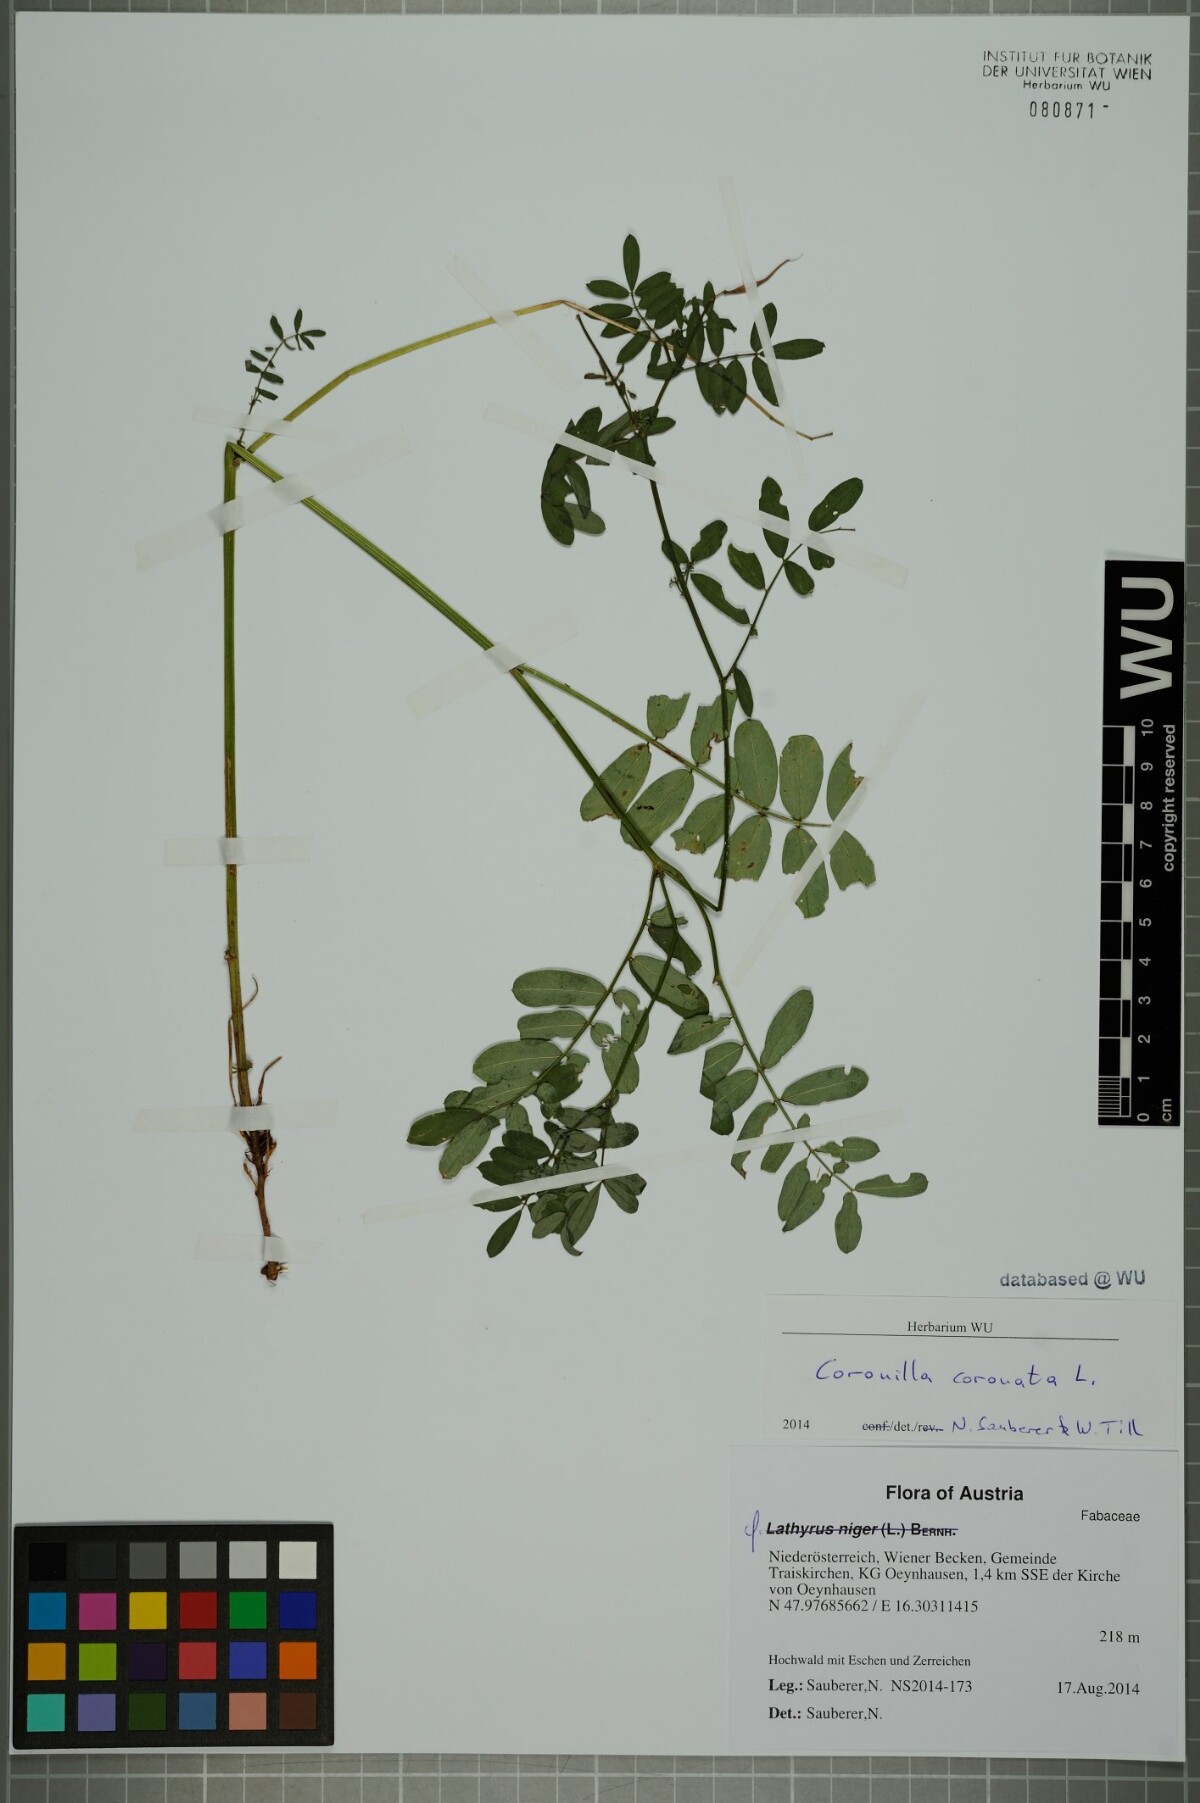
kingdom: Plantae
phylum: Tracheophyta
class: Magnoliopsida
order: Fabales
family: Fabaceae
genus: Coronilla
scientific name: Coronilla coronata
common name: Scorpion-vetch
